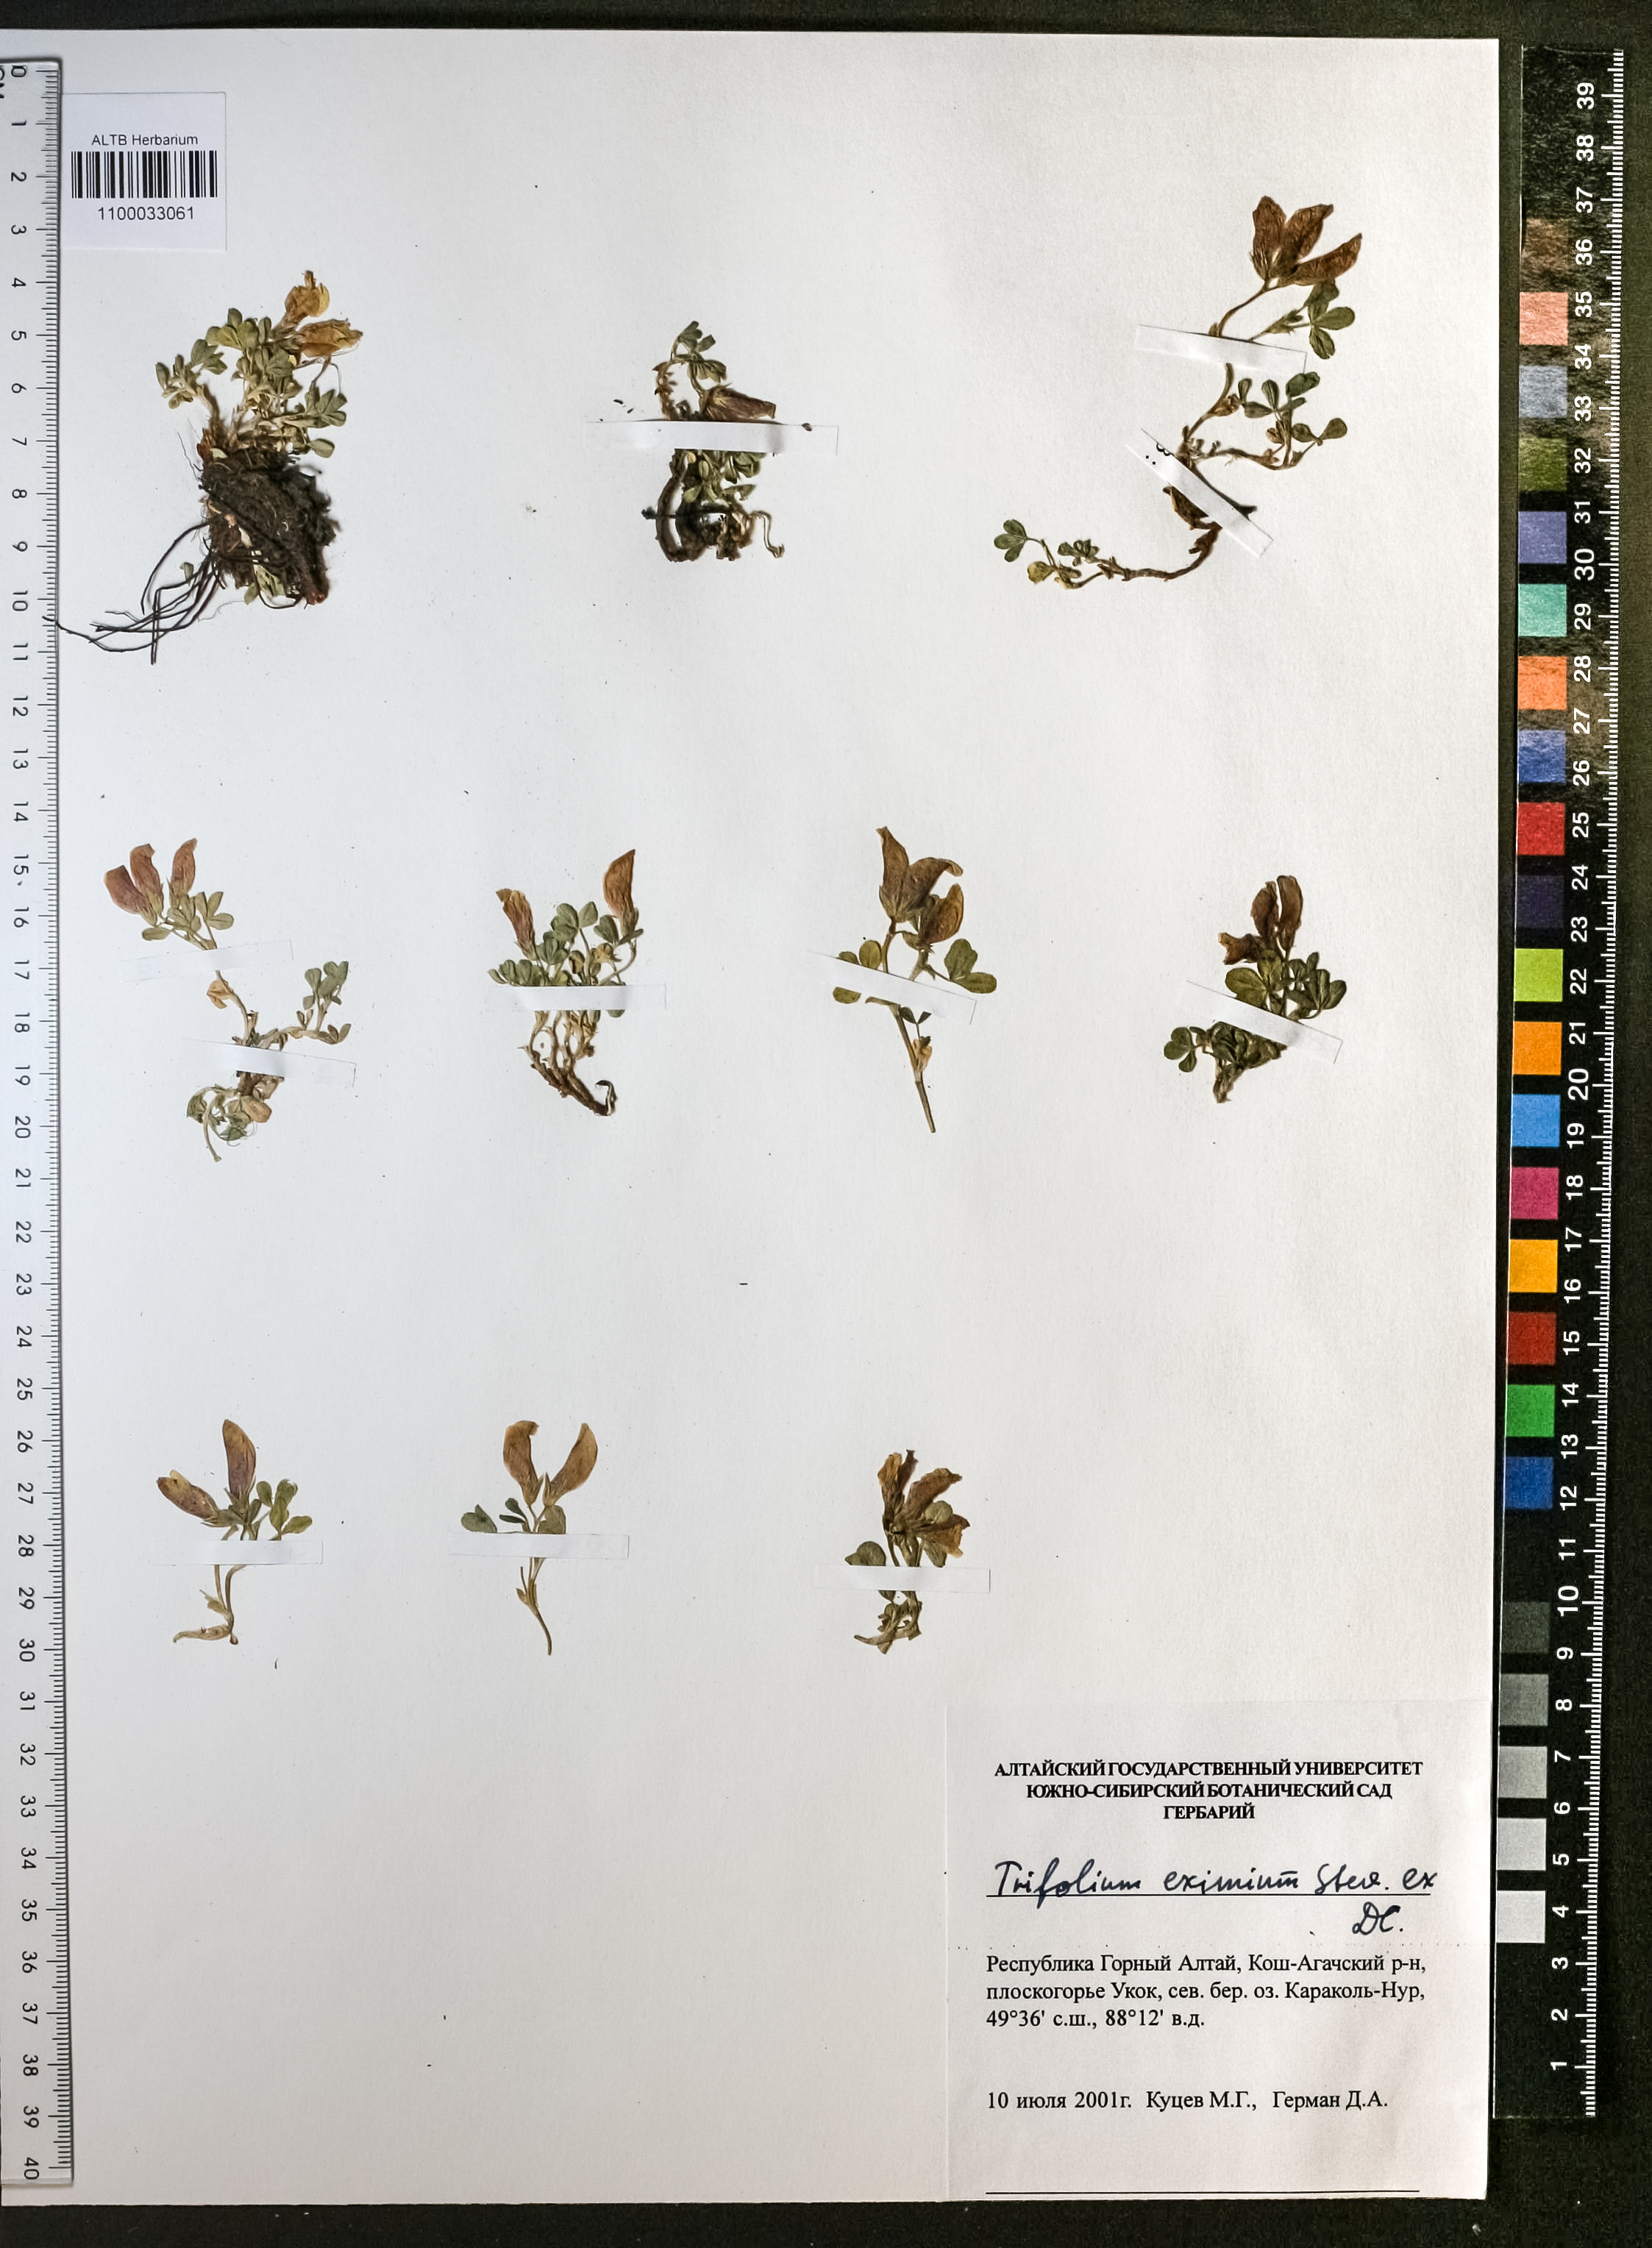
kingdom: Plantae
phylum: Tracheophyta
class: Magnoliopsida
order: Fabales
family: Fabaceae
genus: Trifolium
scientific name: Trifolium eximium
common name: Excellent clover
